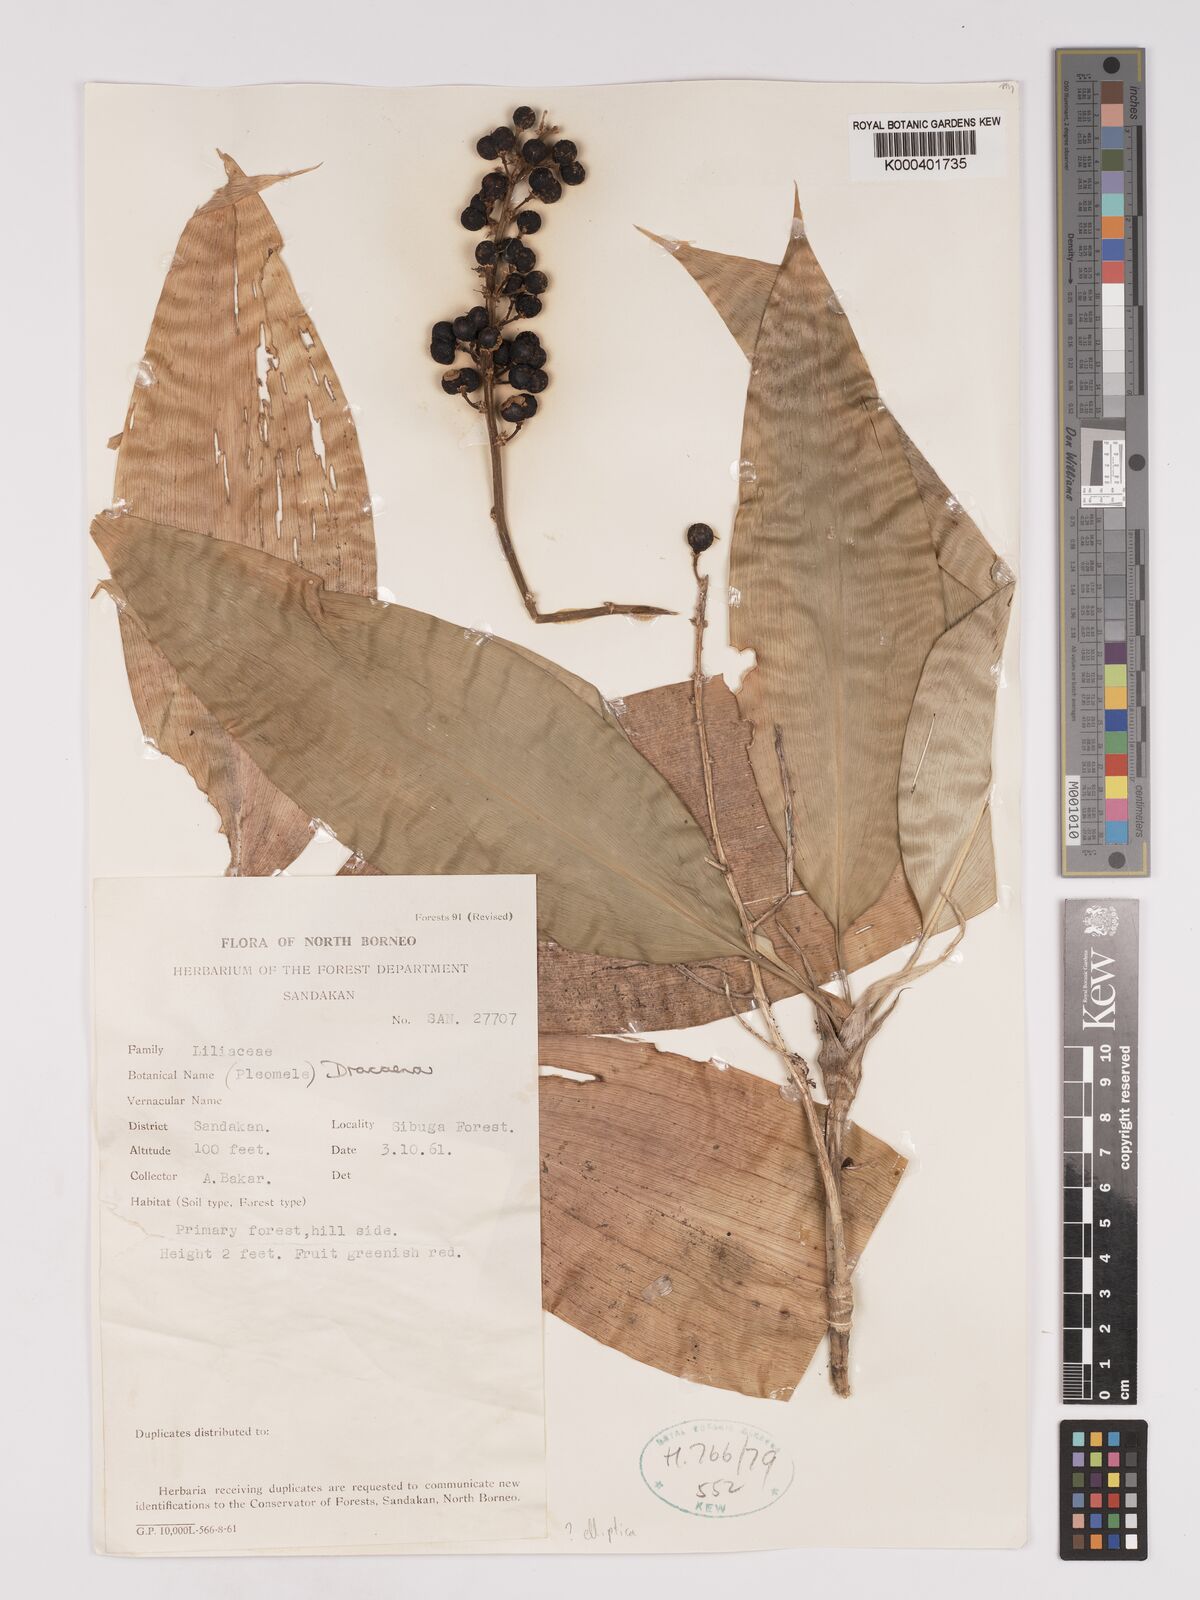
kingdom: Plantae
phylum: Tracheophyta
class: Liliopsida
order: Asparagales
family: Asparagaceae
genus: Dracaena
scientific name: Dracaena elliptica
